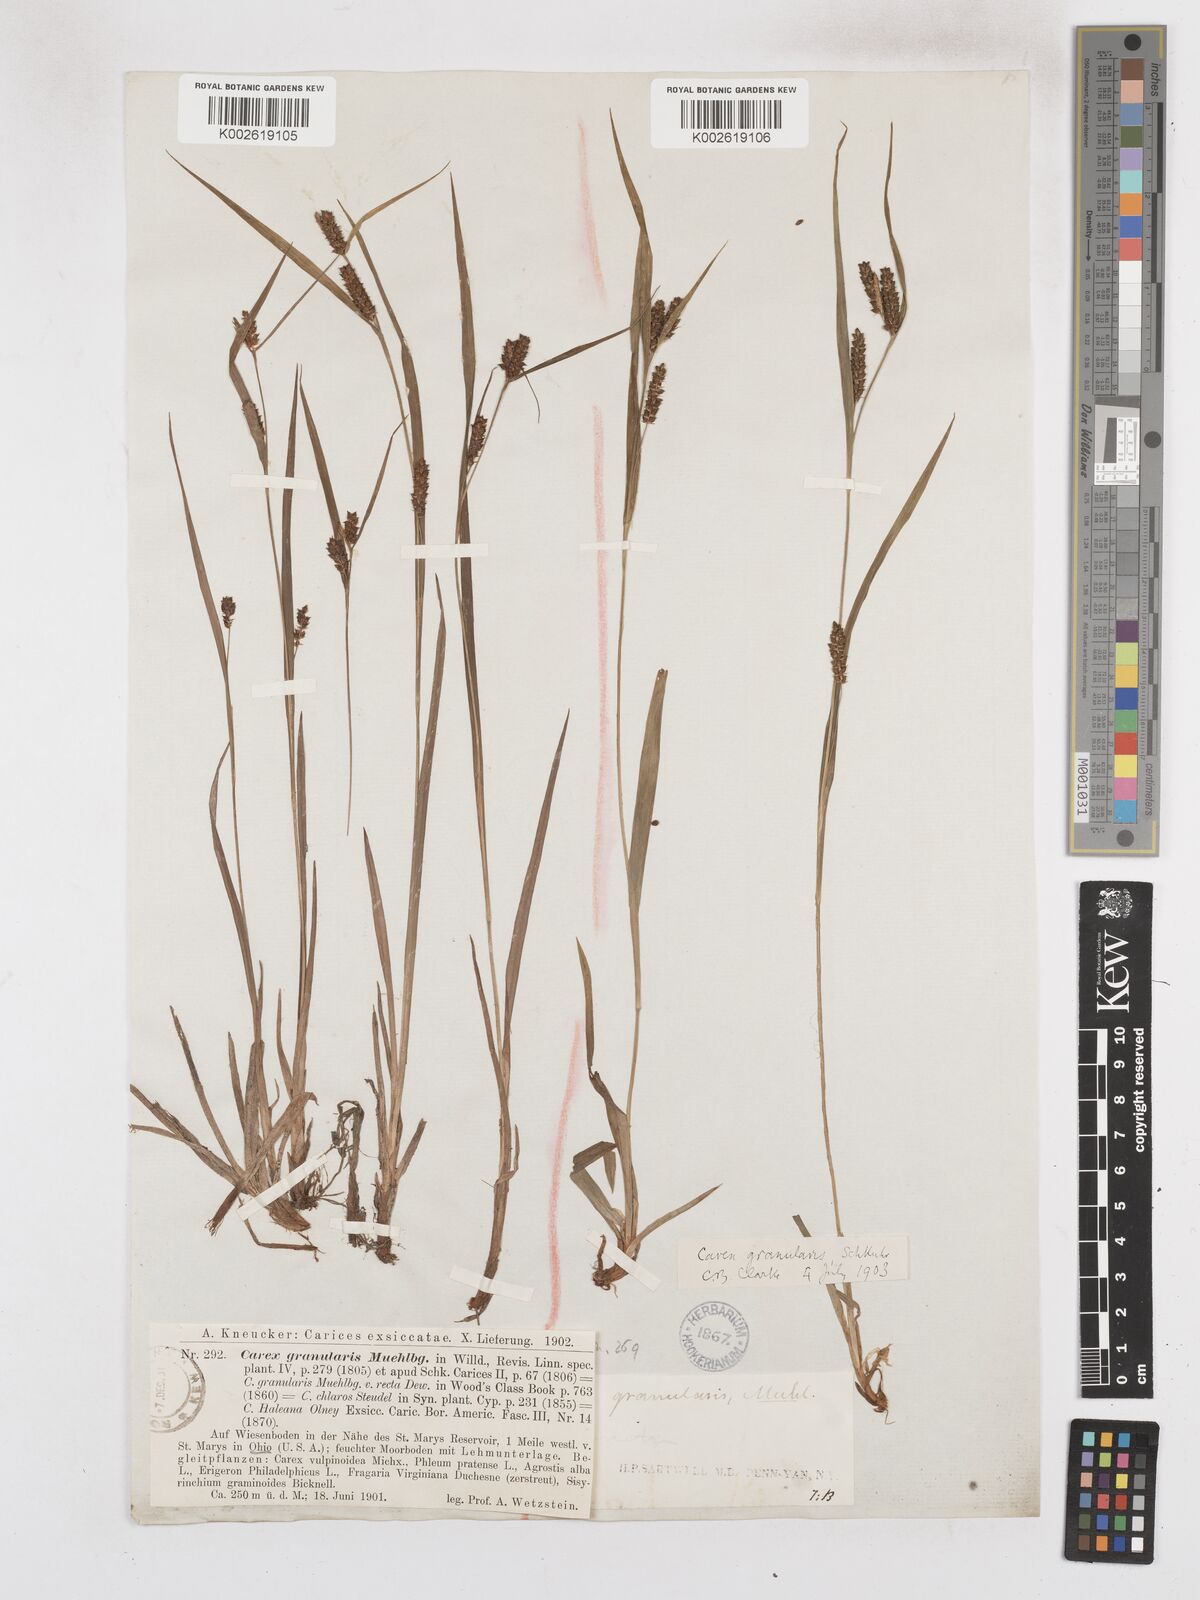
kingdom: Plantae
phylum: Tracheophyta
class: Liliopsida
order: Poales
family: Cyperaceae
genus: Carex
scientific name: Carex granularis
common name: Granular sedge
